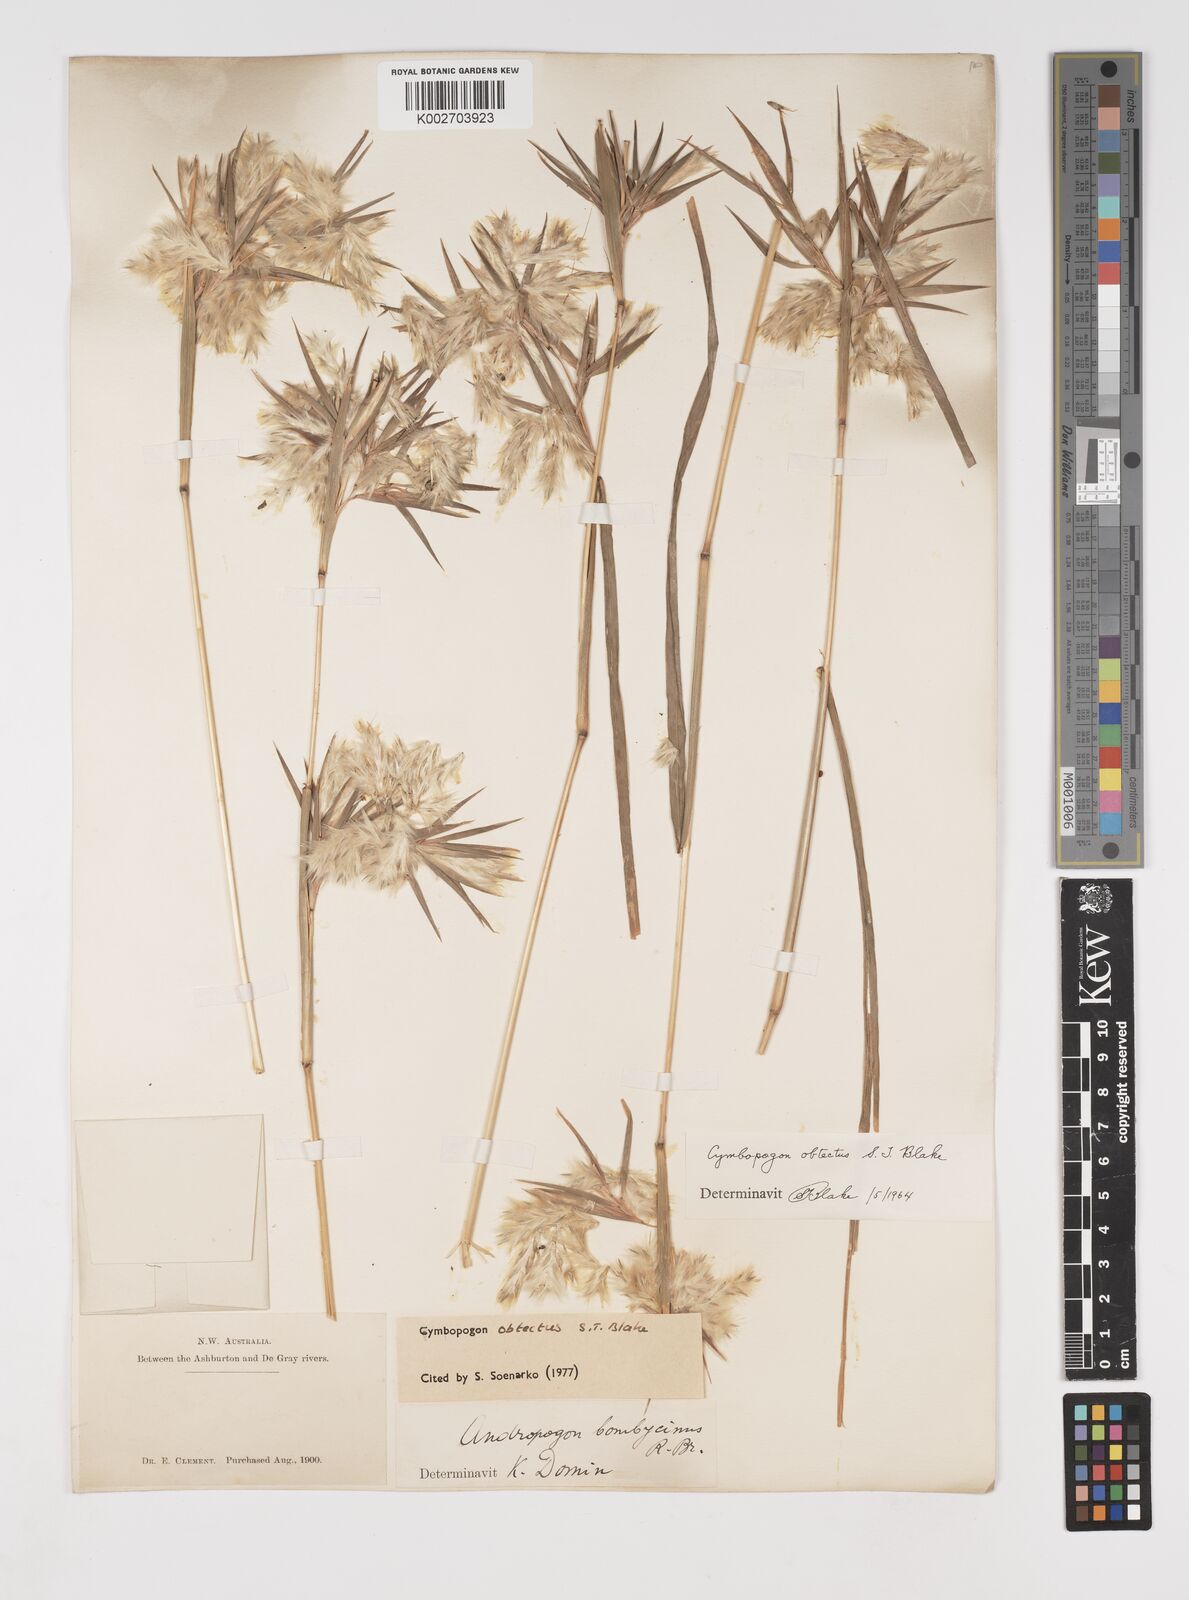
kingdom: Plantae
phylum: Tracheophyta
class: Liliopsida
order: Poales
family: Poaceae
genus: Cymbopogon
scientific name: Cymbopogon obtectus
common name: Silky heads
